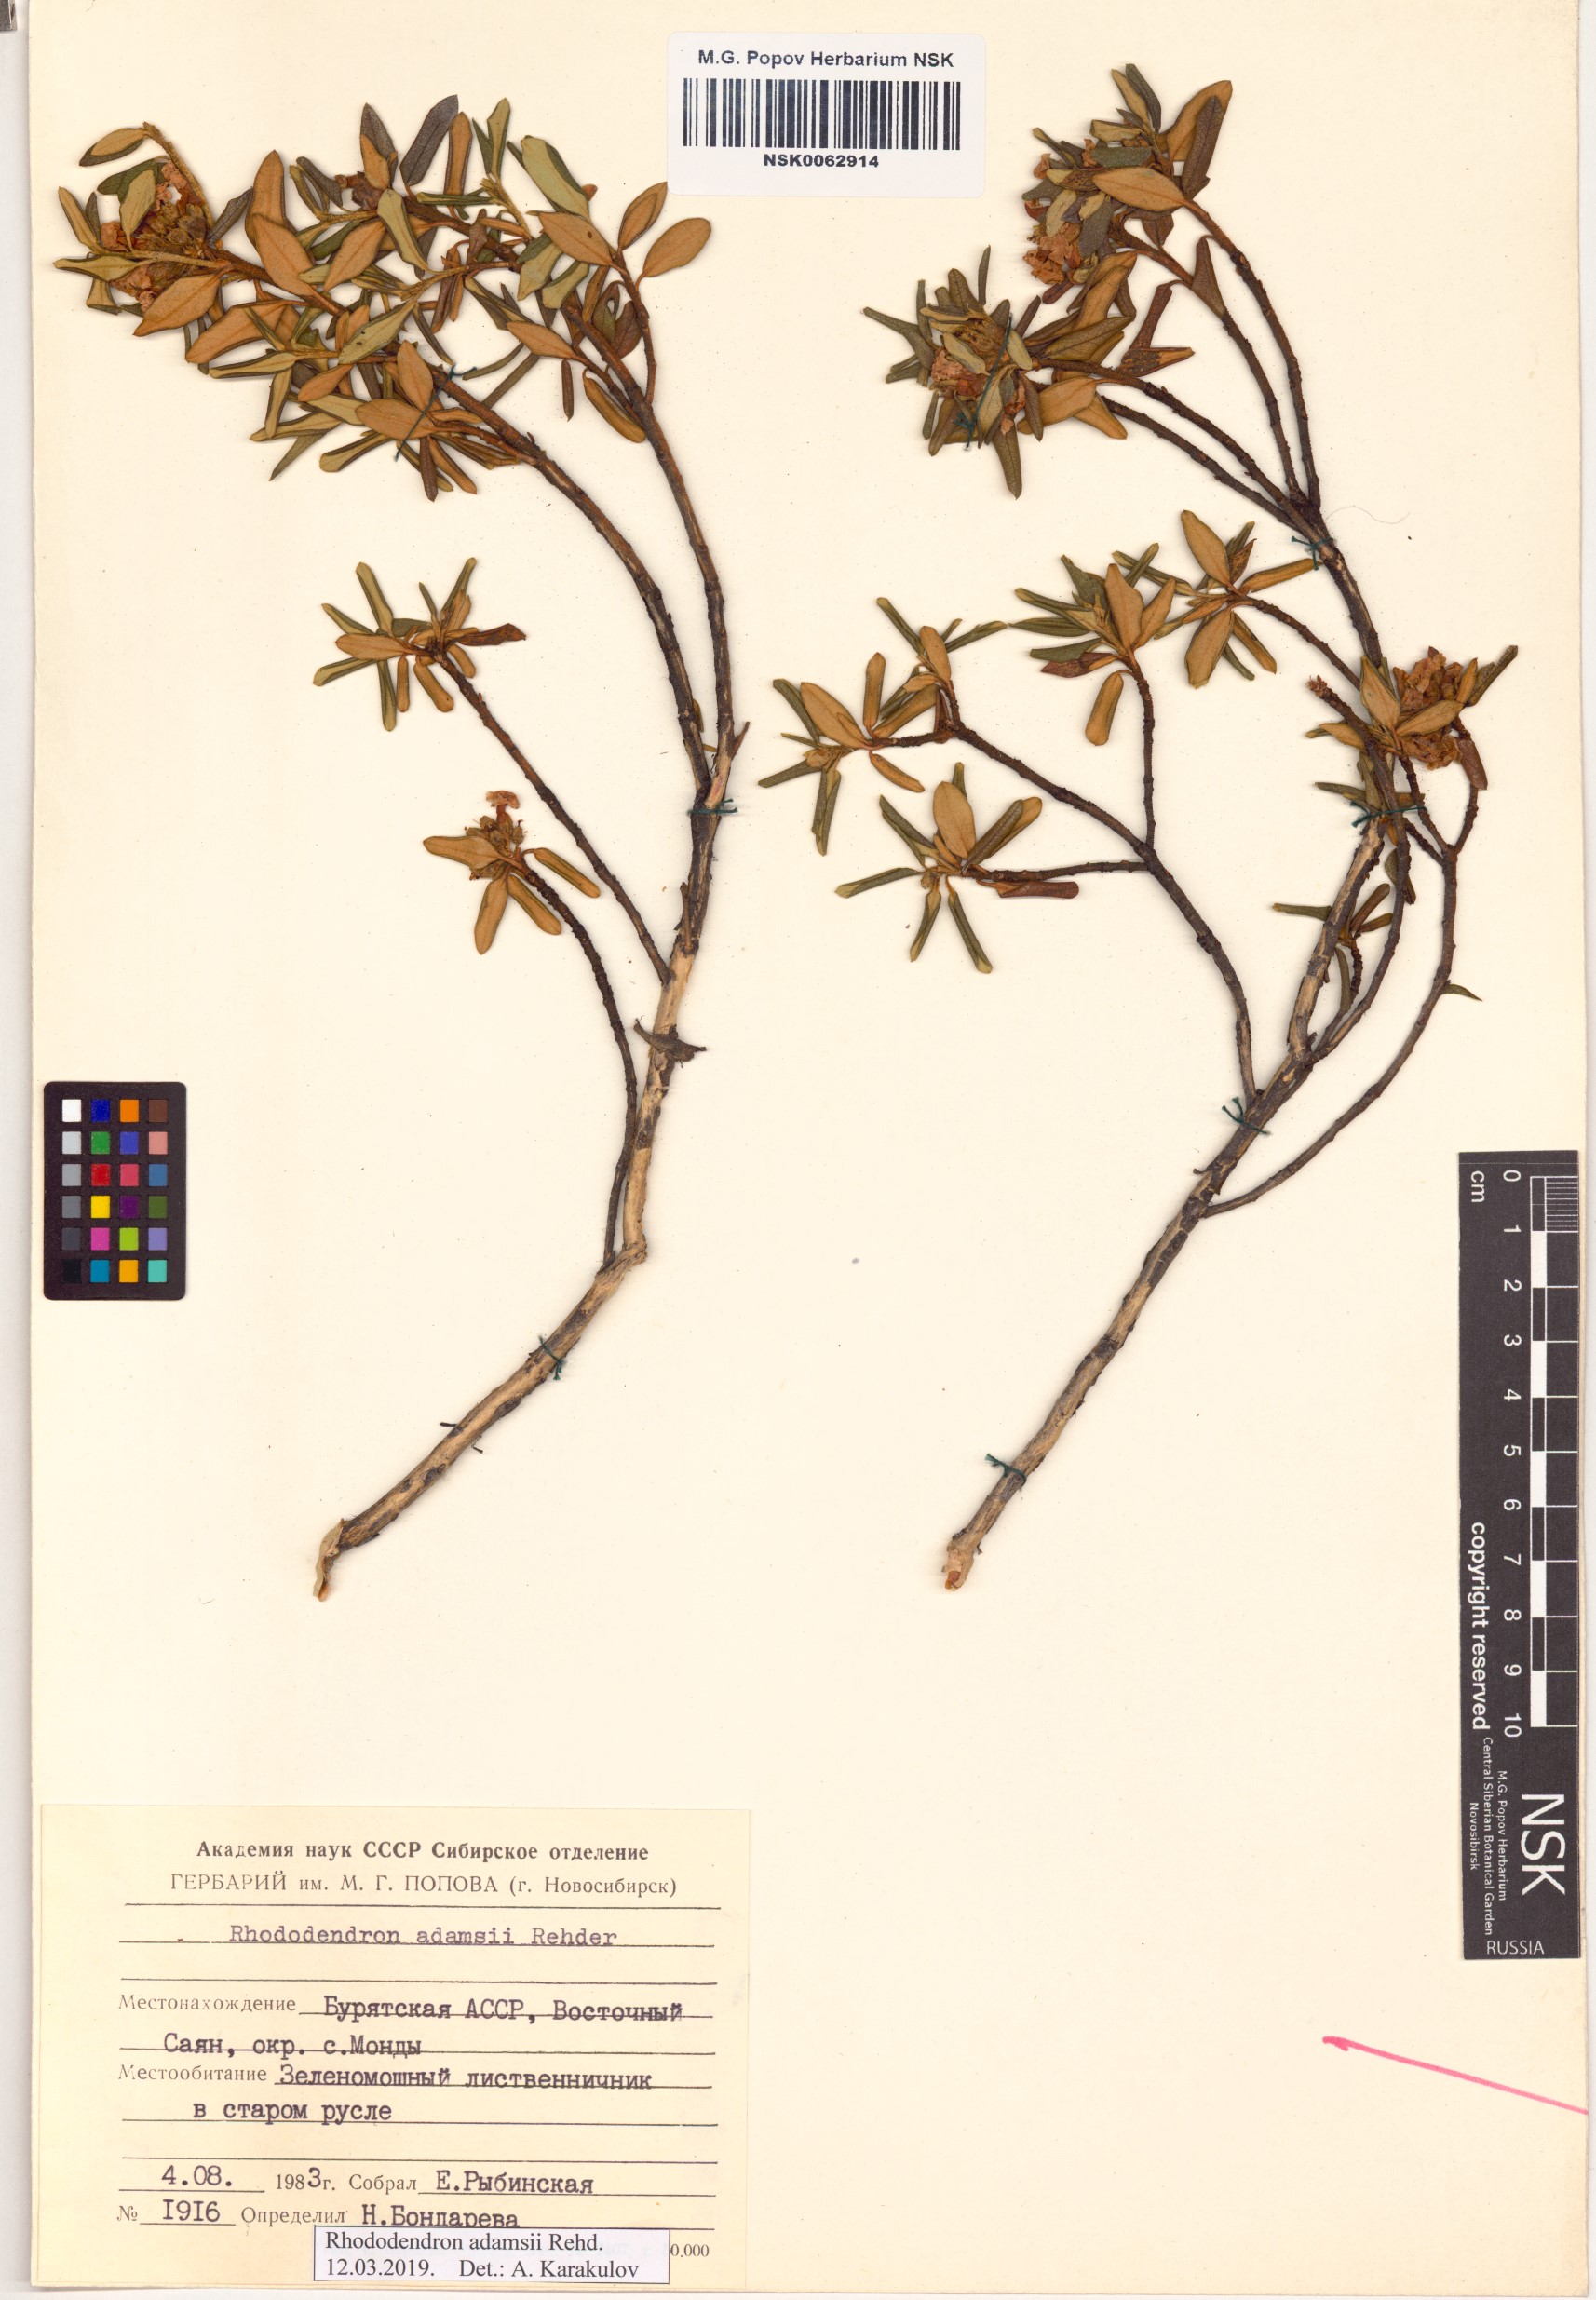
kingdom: Plantae
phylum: Tracheophyta
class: Magnoliopsida
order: Ericales
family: Ericaceae
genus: Rhododendron
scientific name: Rhododendron adamsii
